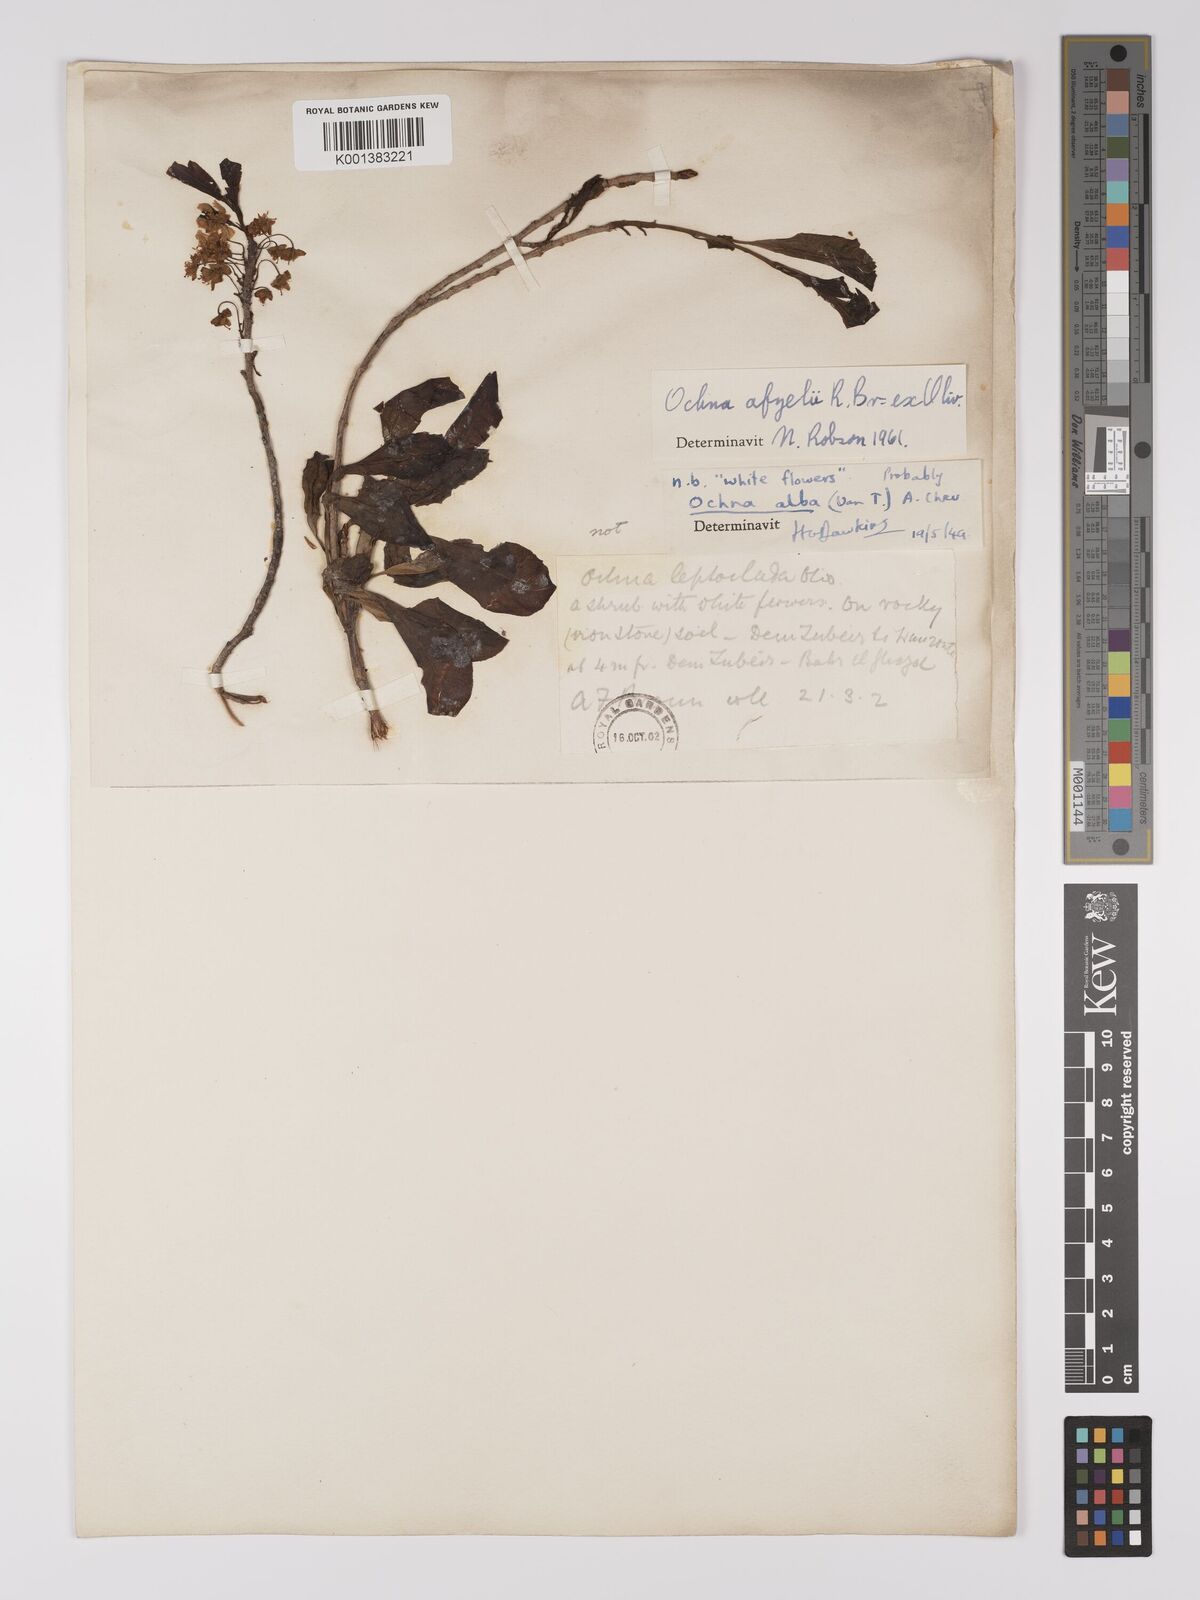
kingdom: Plantae
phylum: Tracheophyta
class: Magnoliopsida
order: Malpighiales
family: Ochnaceae
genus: Ochna
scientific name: Ochna afzelii
